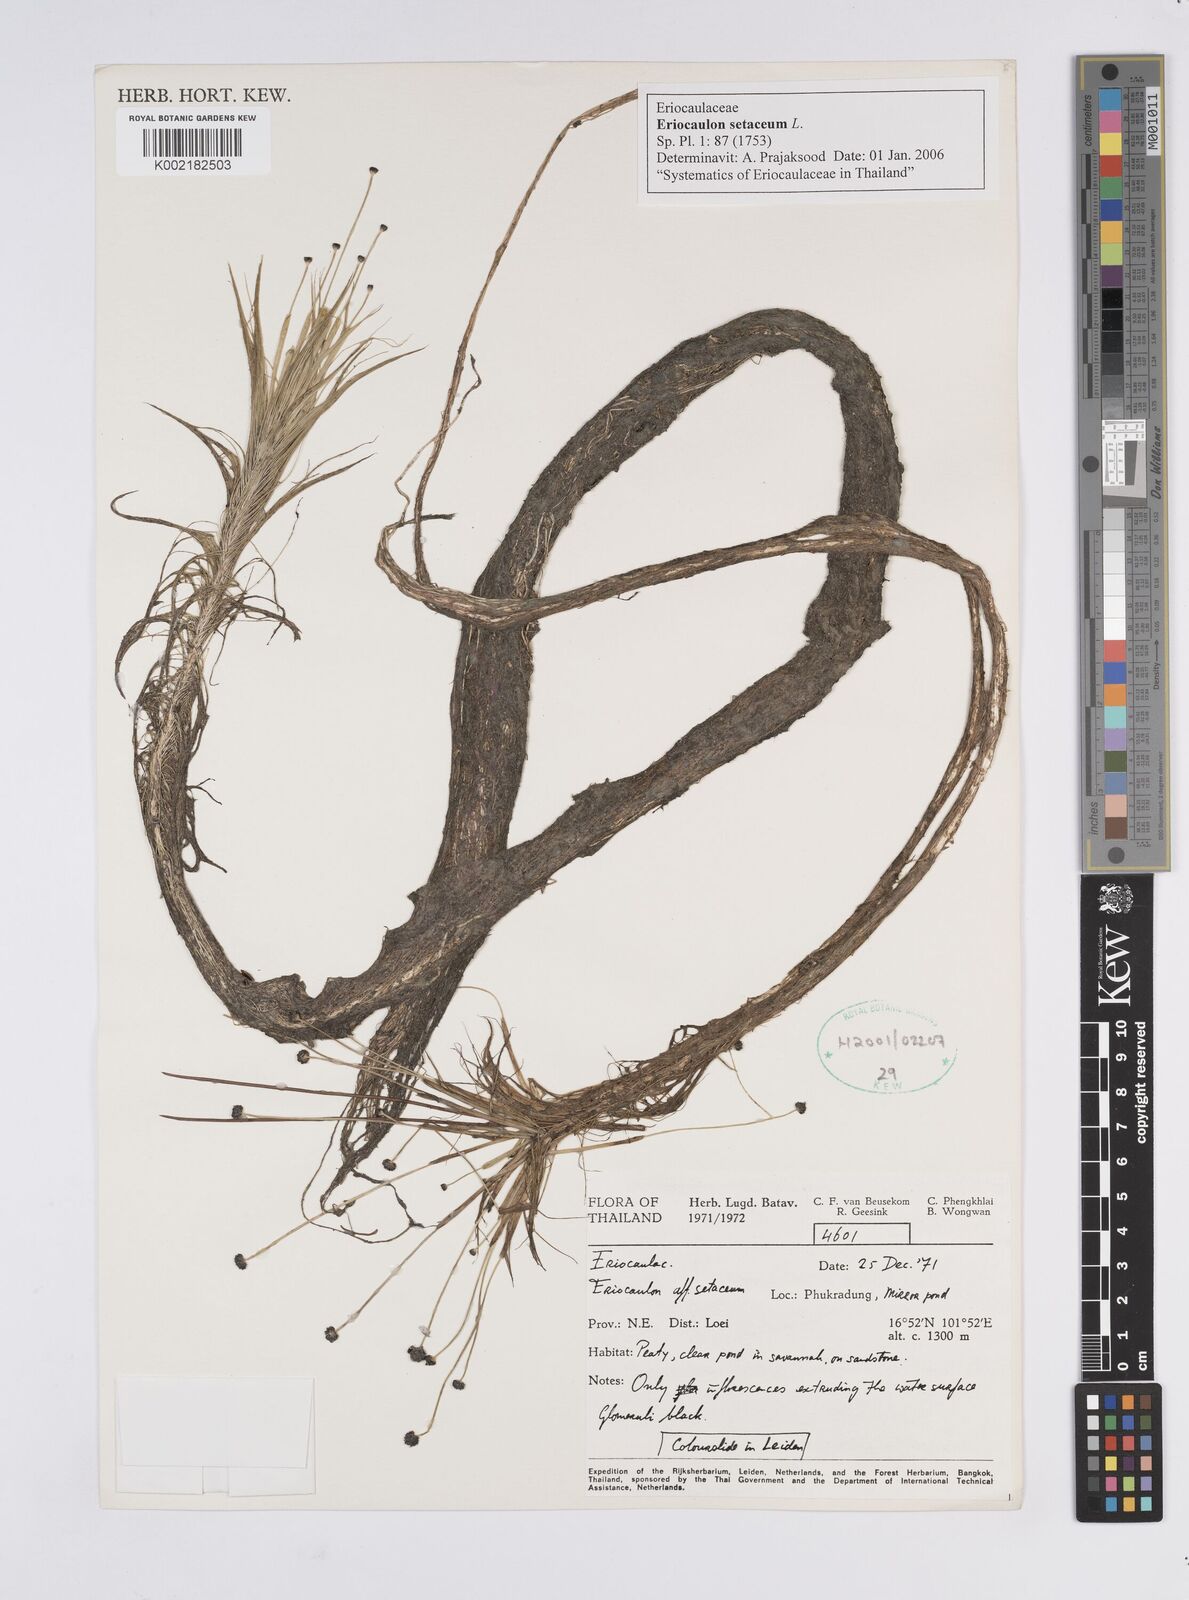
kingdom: Plantae
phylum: Tracheophyta
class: Liliopsida
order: Poales
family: Eriocaulaceae
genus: Eriocaulon
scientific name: Eriocaulon setaceum
